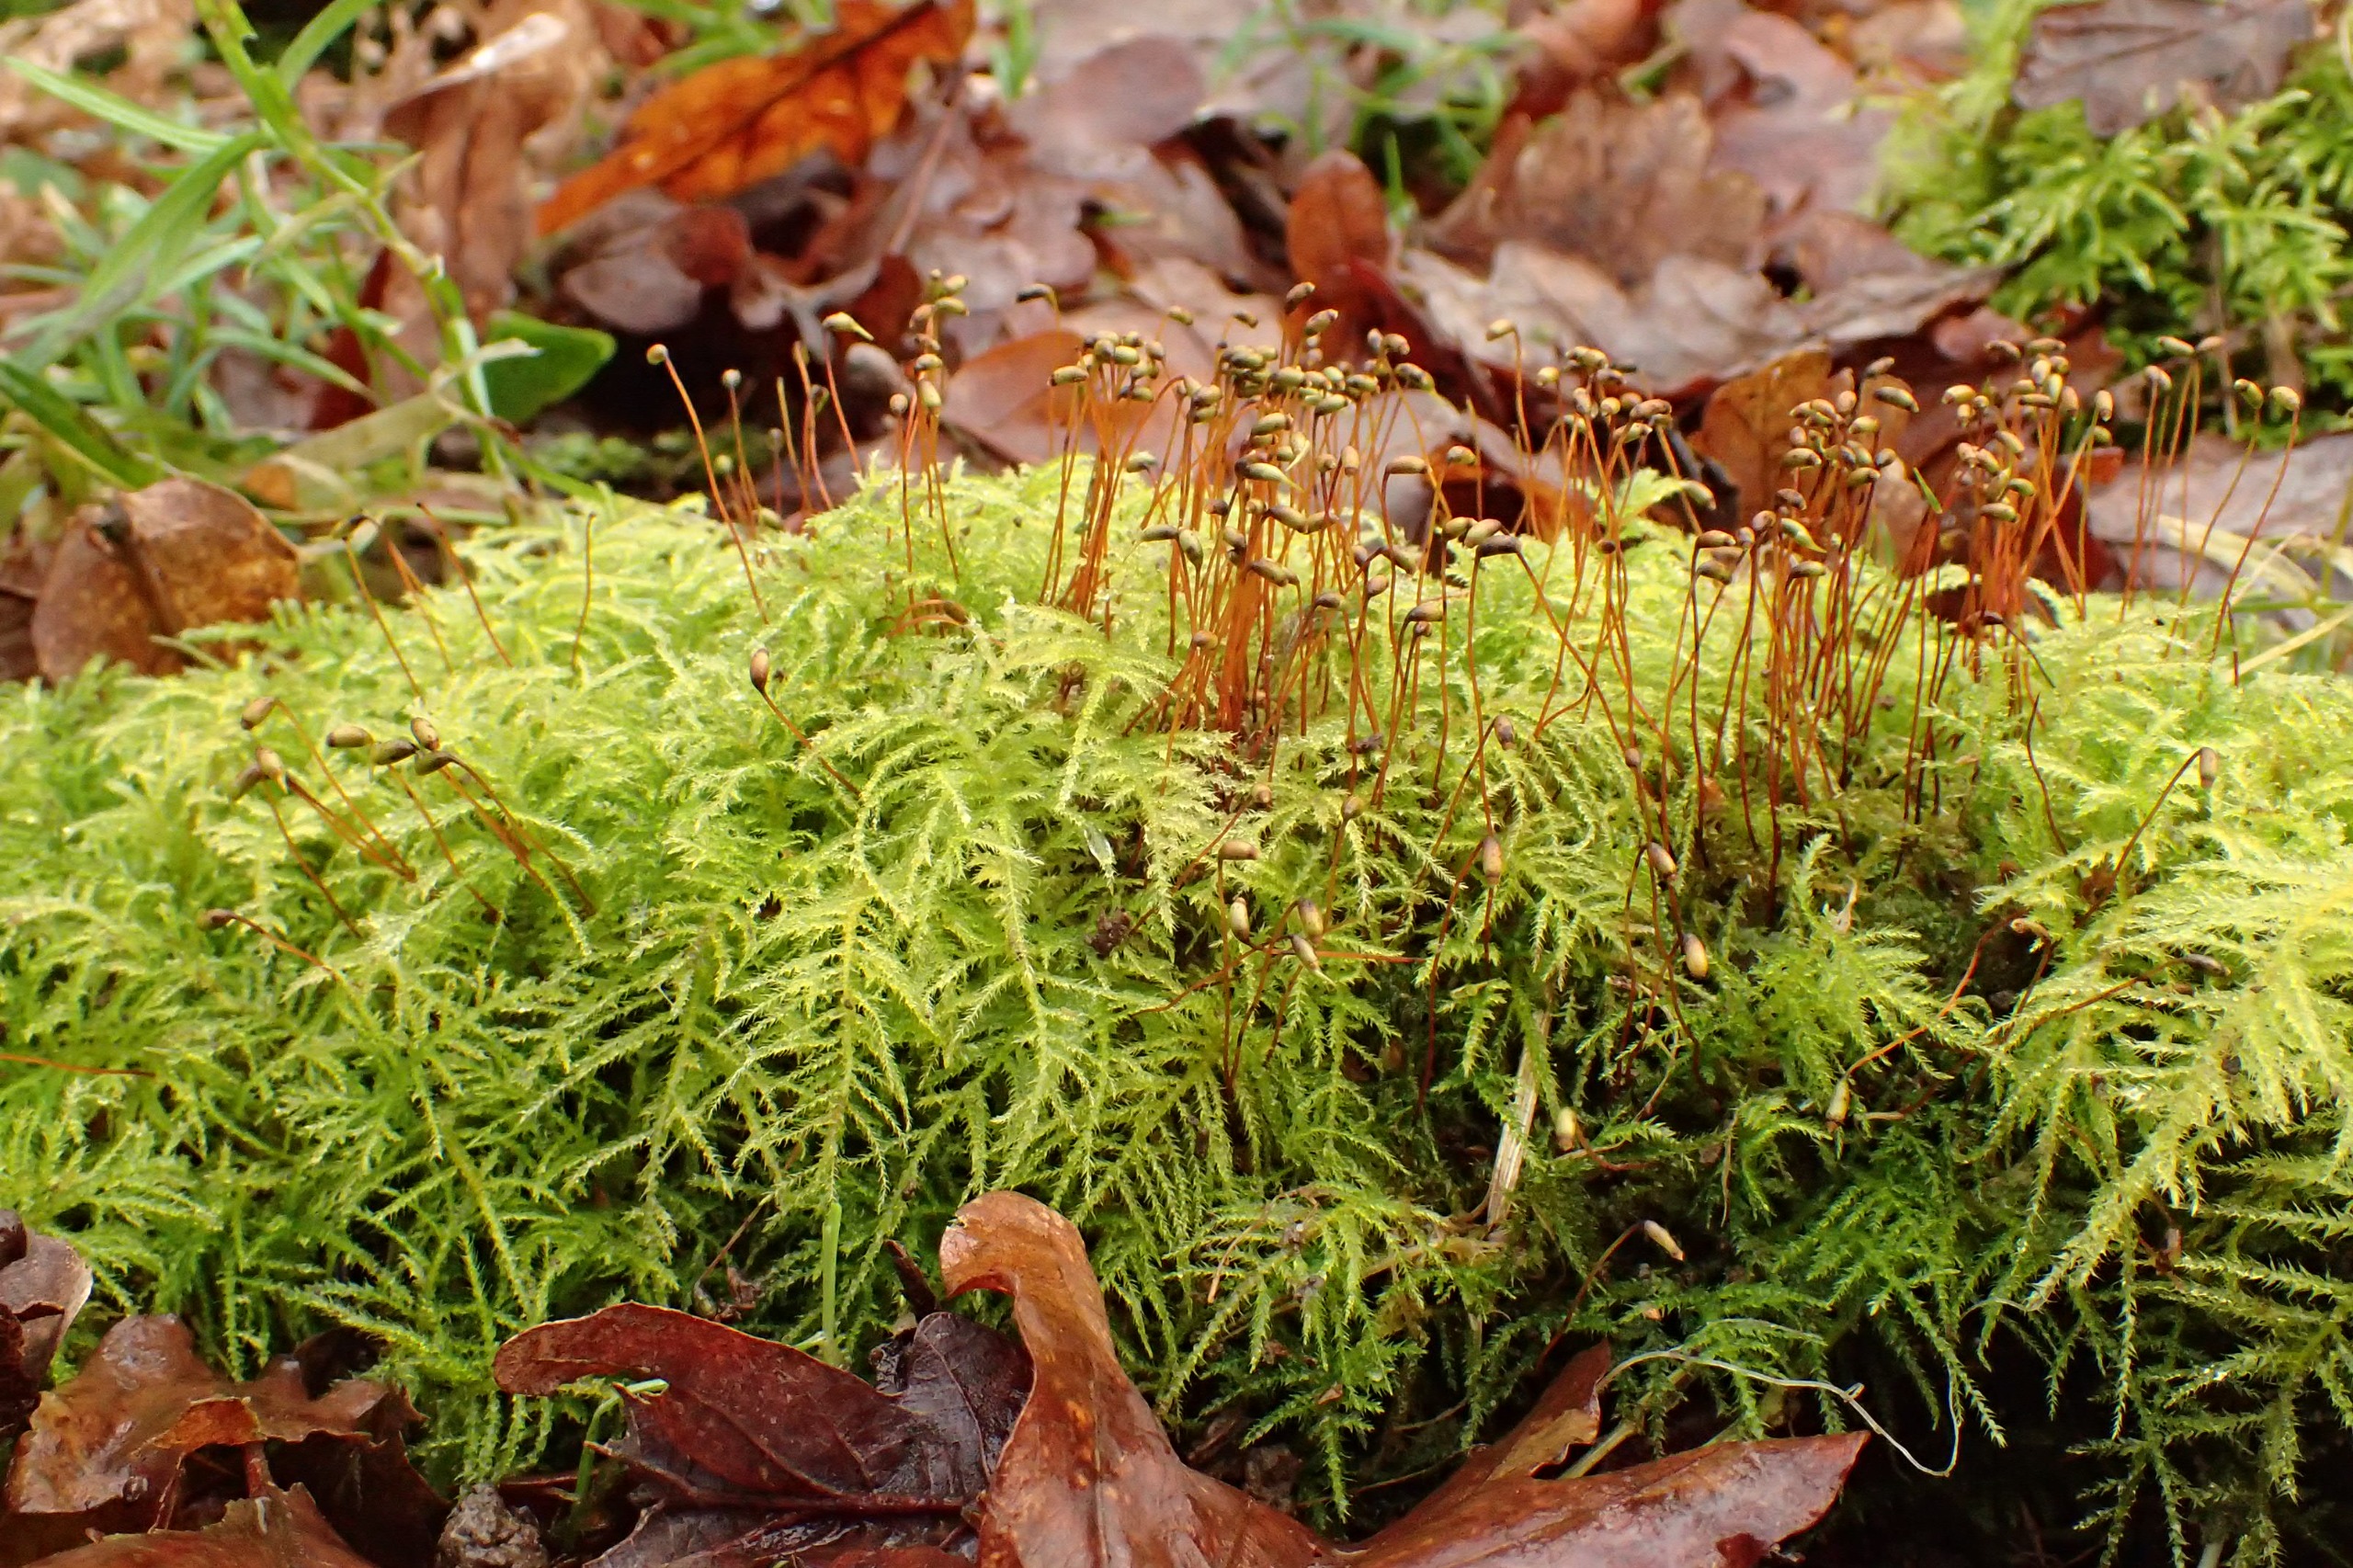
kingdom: Plantae
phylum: Bryophyta
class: Bryopsida
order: Hypnales
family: Brachytheciaceae
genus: Kindbergia
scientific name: Kindbergia praelonga
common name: Forskelligbladet vortetand
